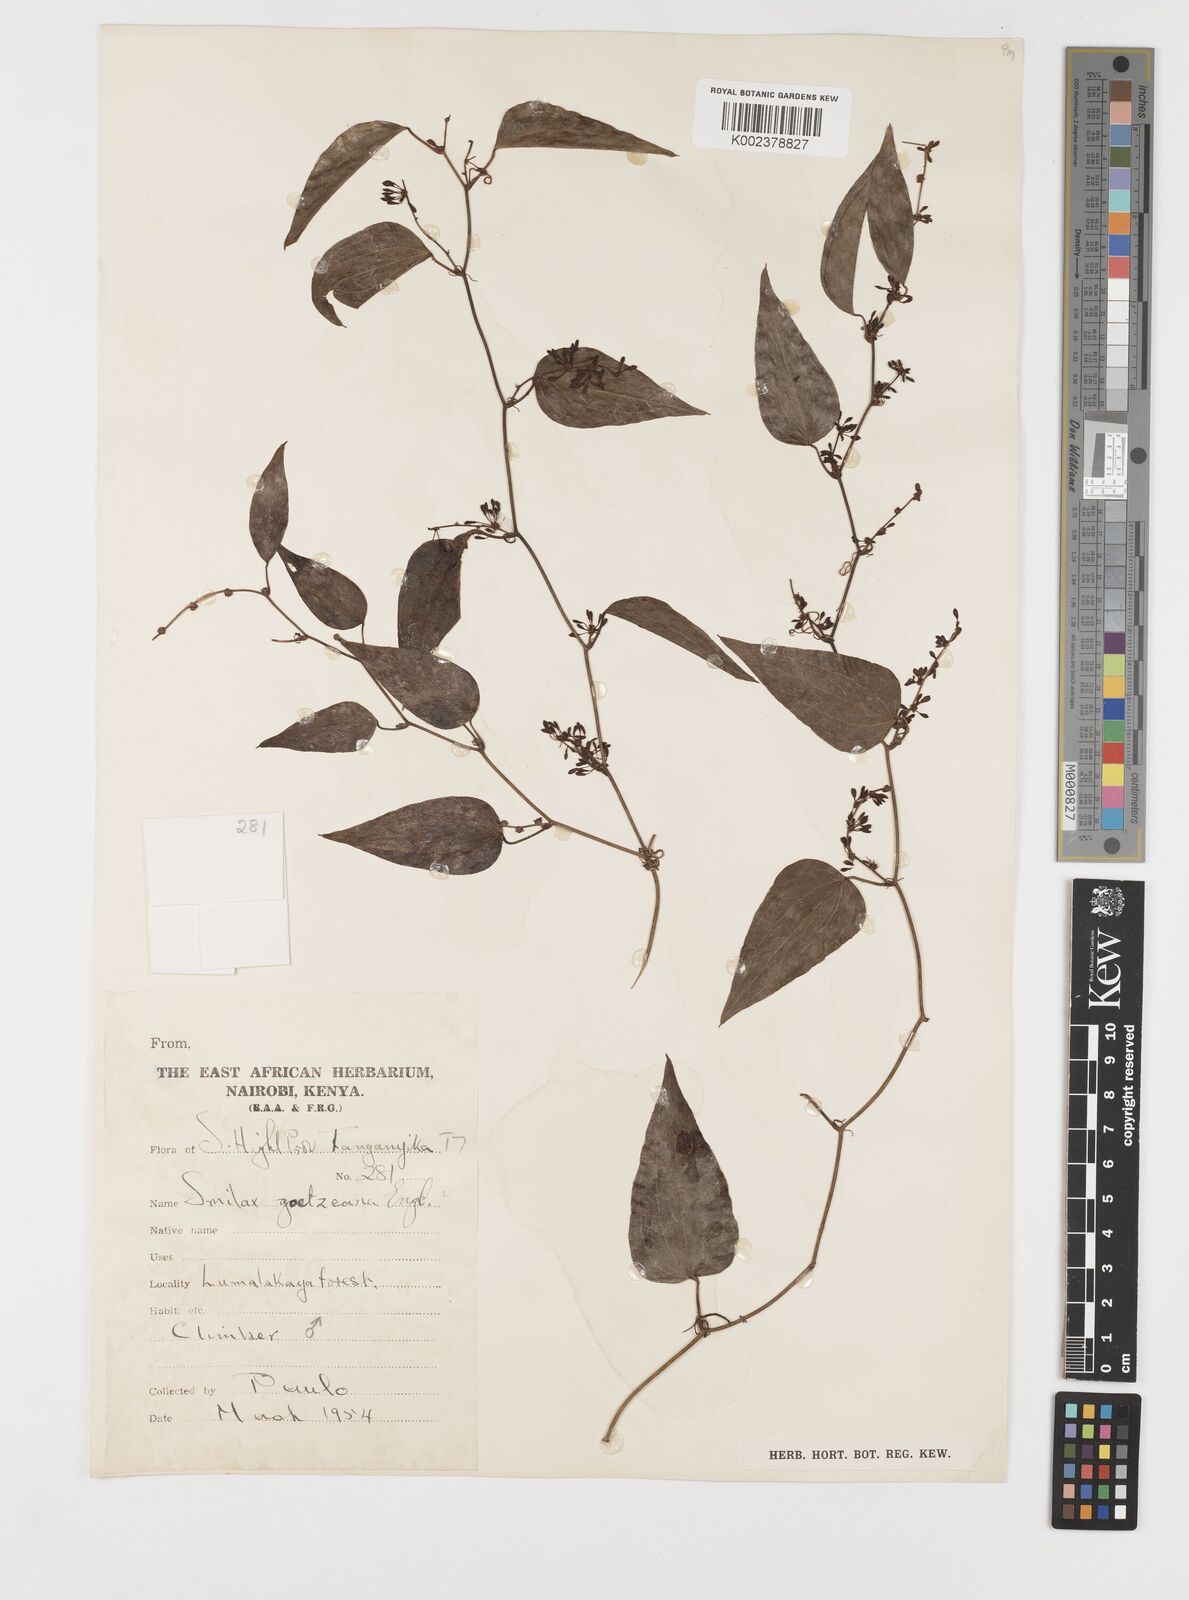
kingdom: Plantae
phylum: Tracheophyta
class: Liliopsida
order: Liliales
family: Smilacaceae
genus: Smilax
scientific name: Smilax aspera
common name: Common smilax
